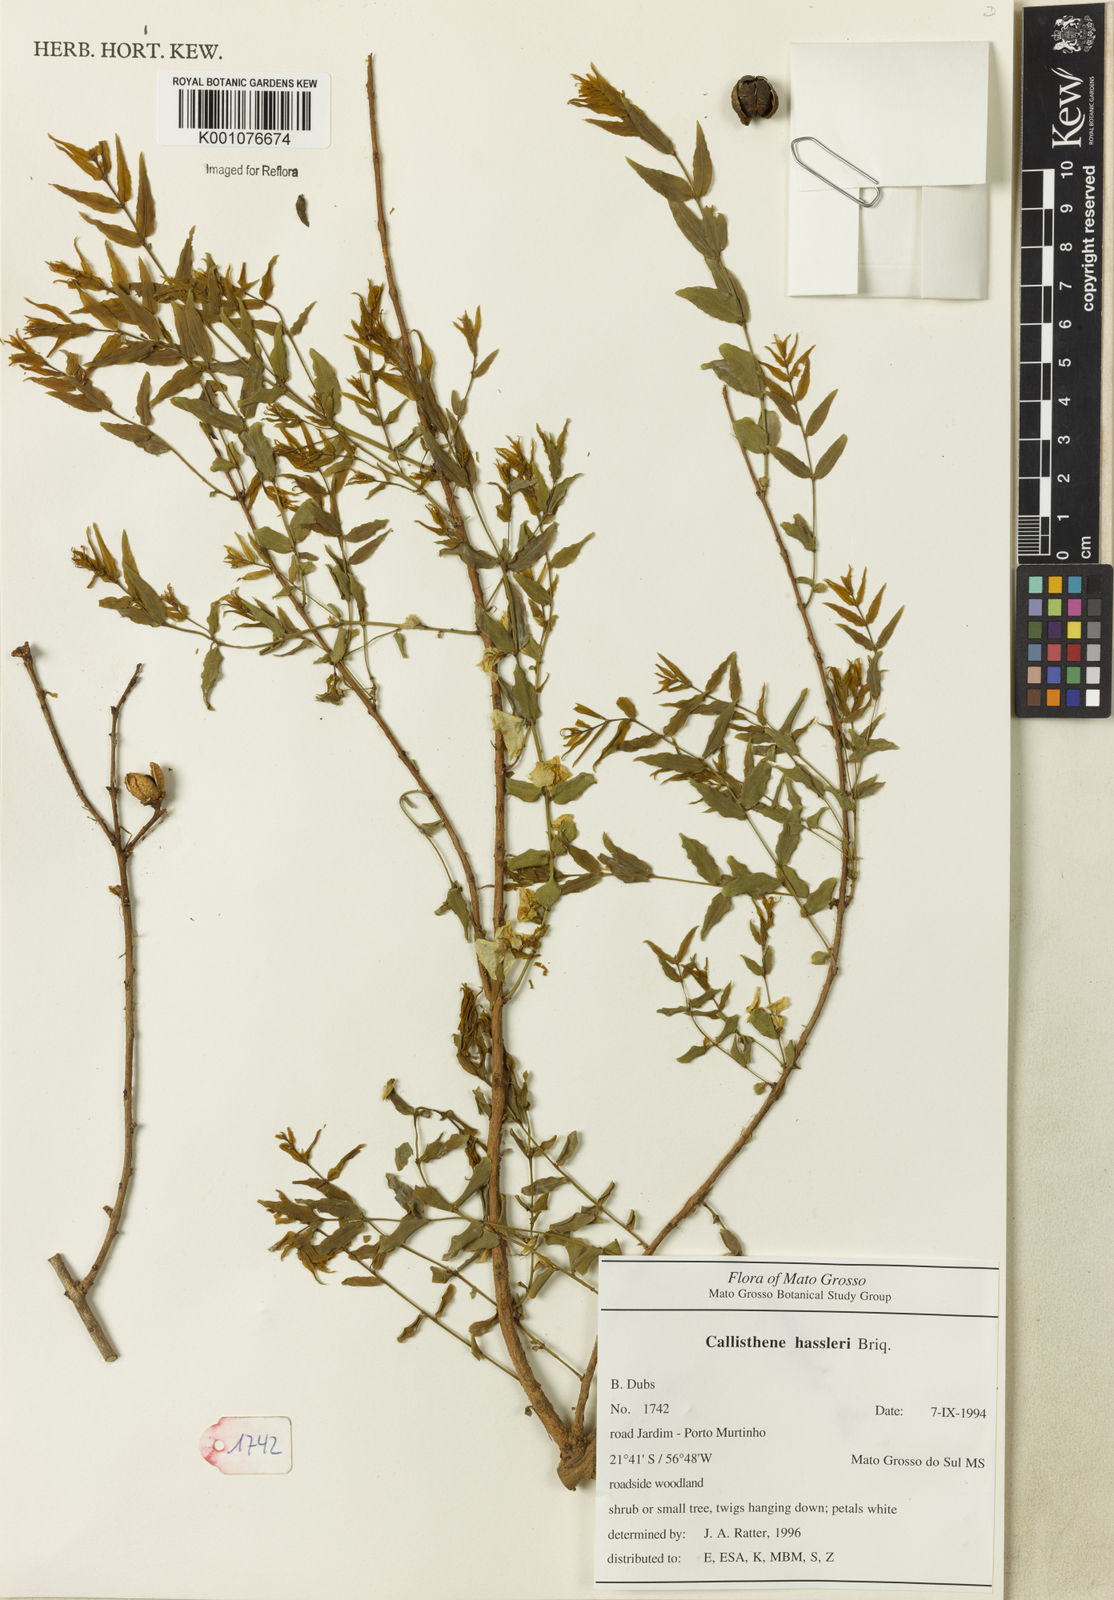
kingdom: Plantae
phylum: Tracheophyta
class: Magnoliopsida
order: Myrtales
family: Vochysiaceae
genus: Callisthene
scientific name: Callisthene hassleri
